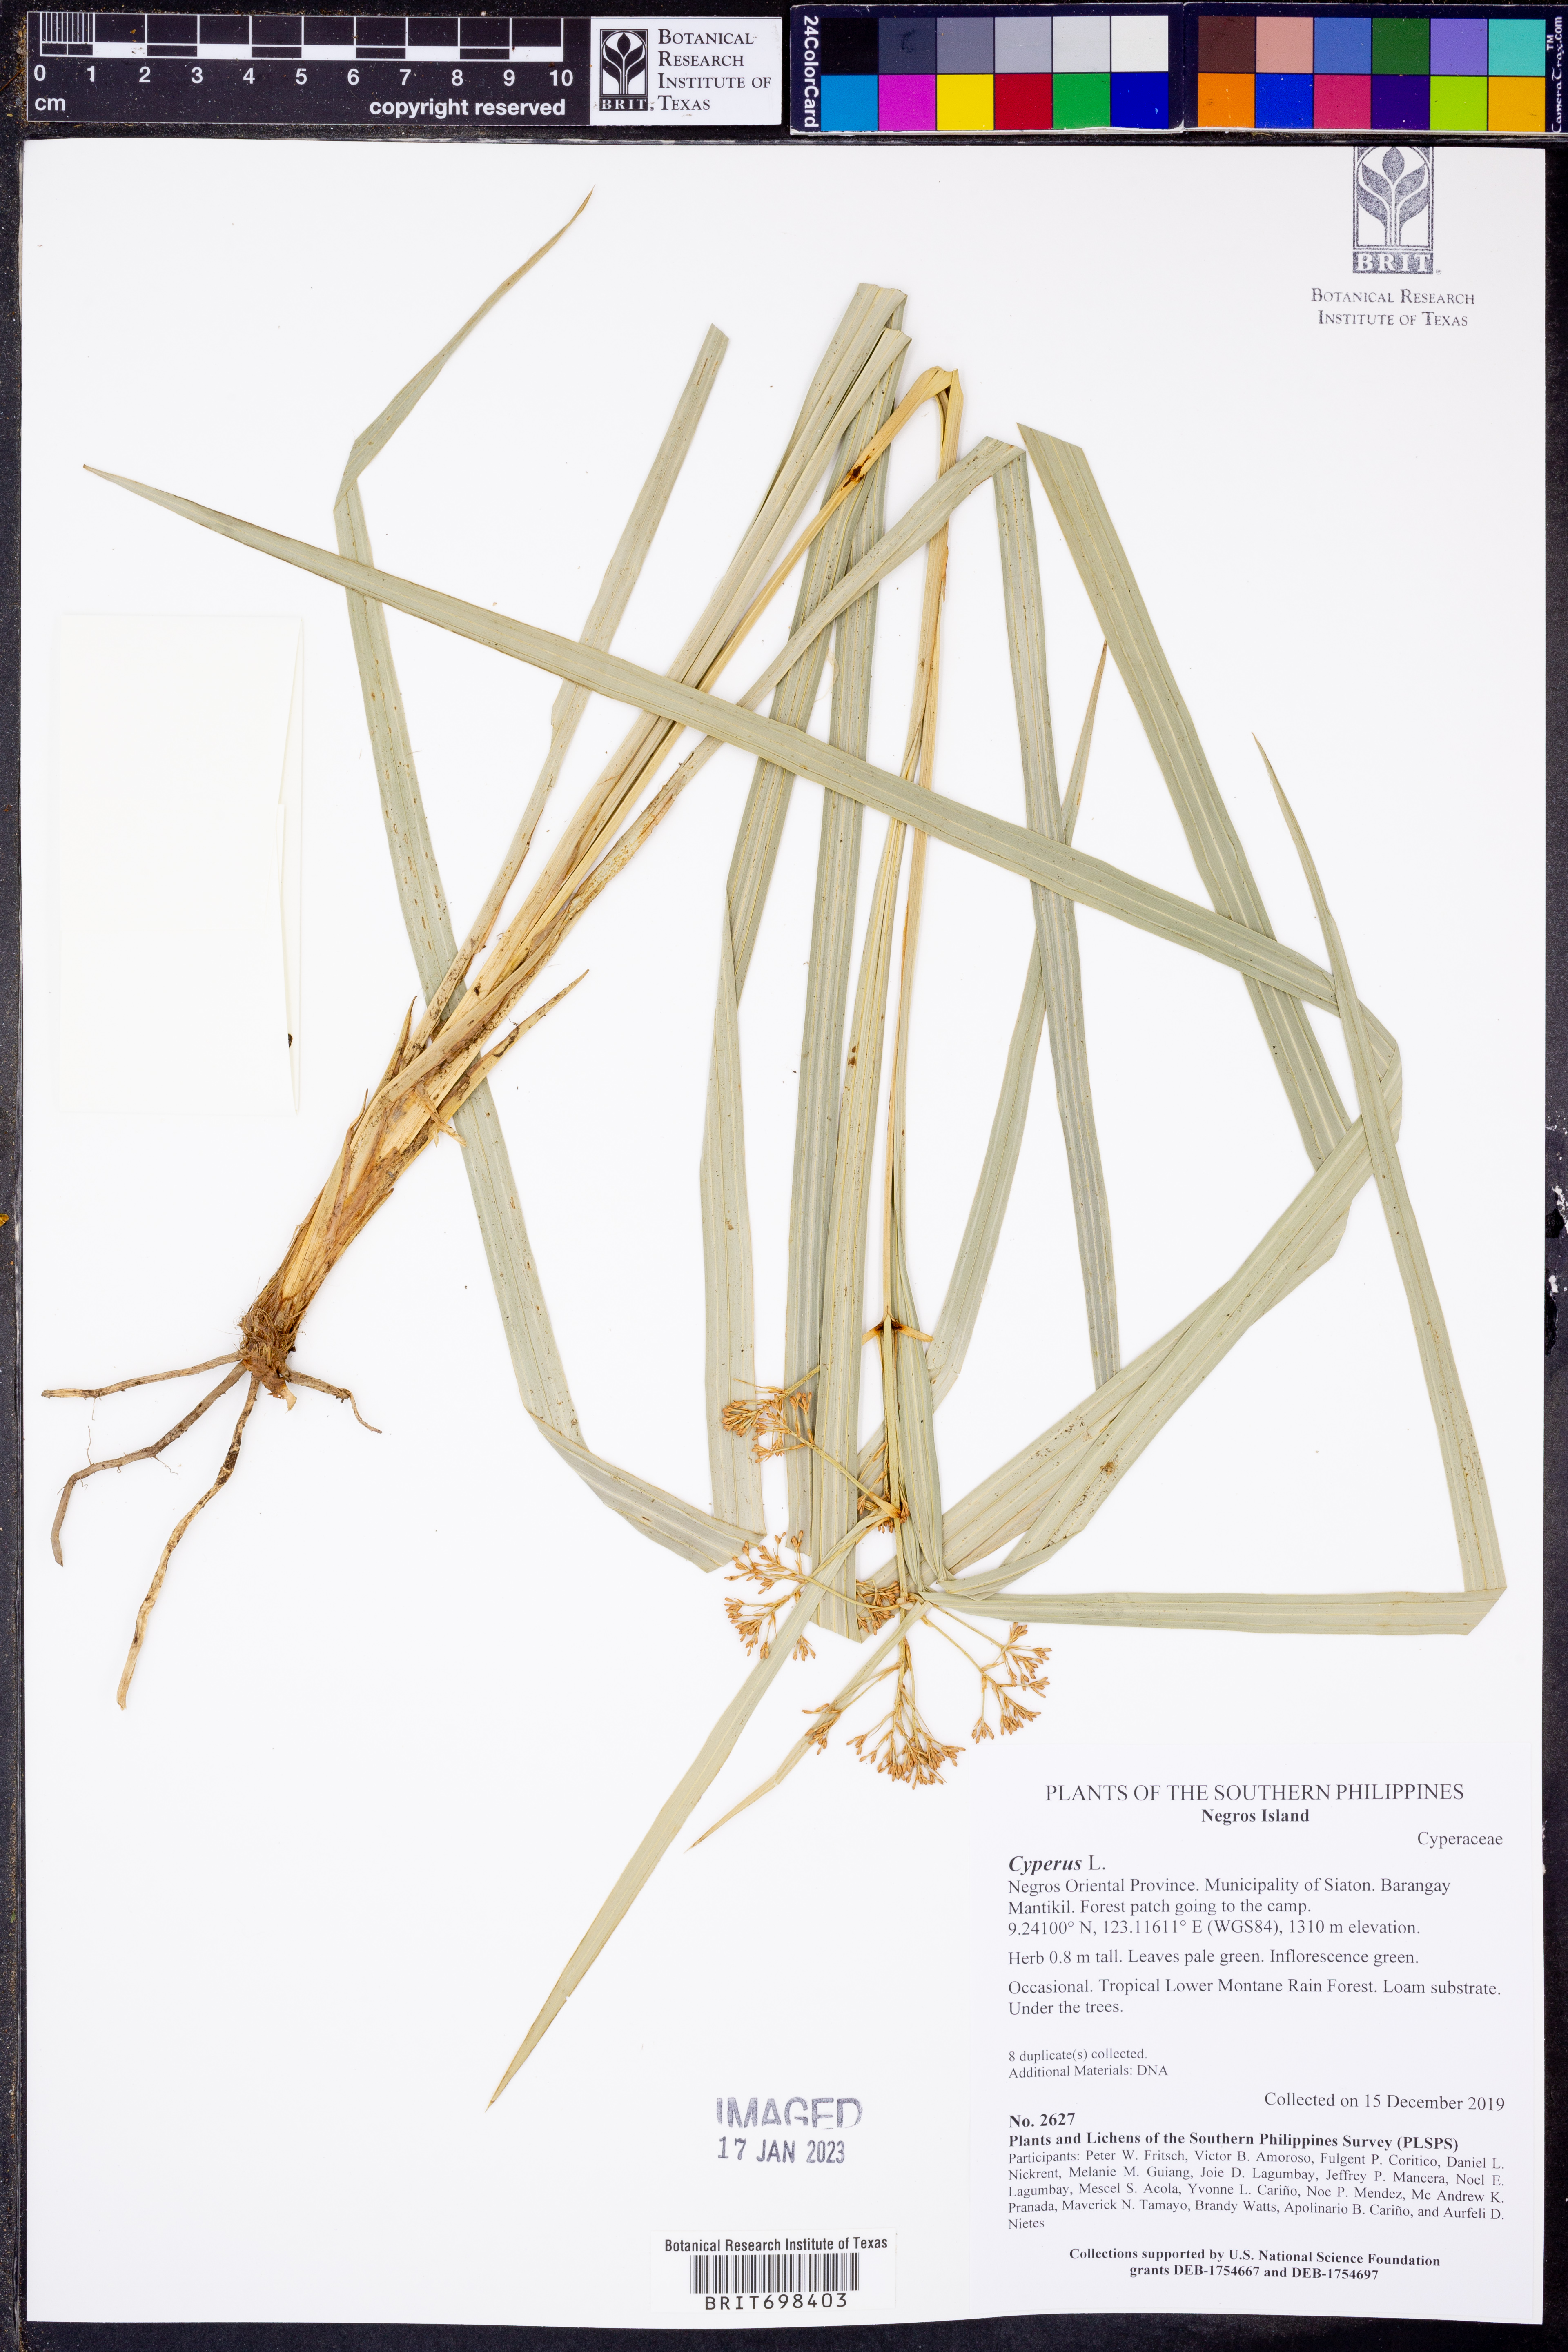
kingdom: Plantae
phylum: Tracheophyta
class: Liliopsida
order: Poales
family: Cyperaceae
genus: Cyperus
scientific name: Cyperus
